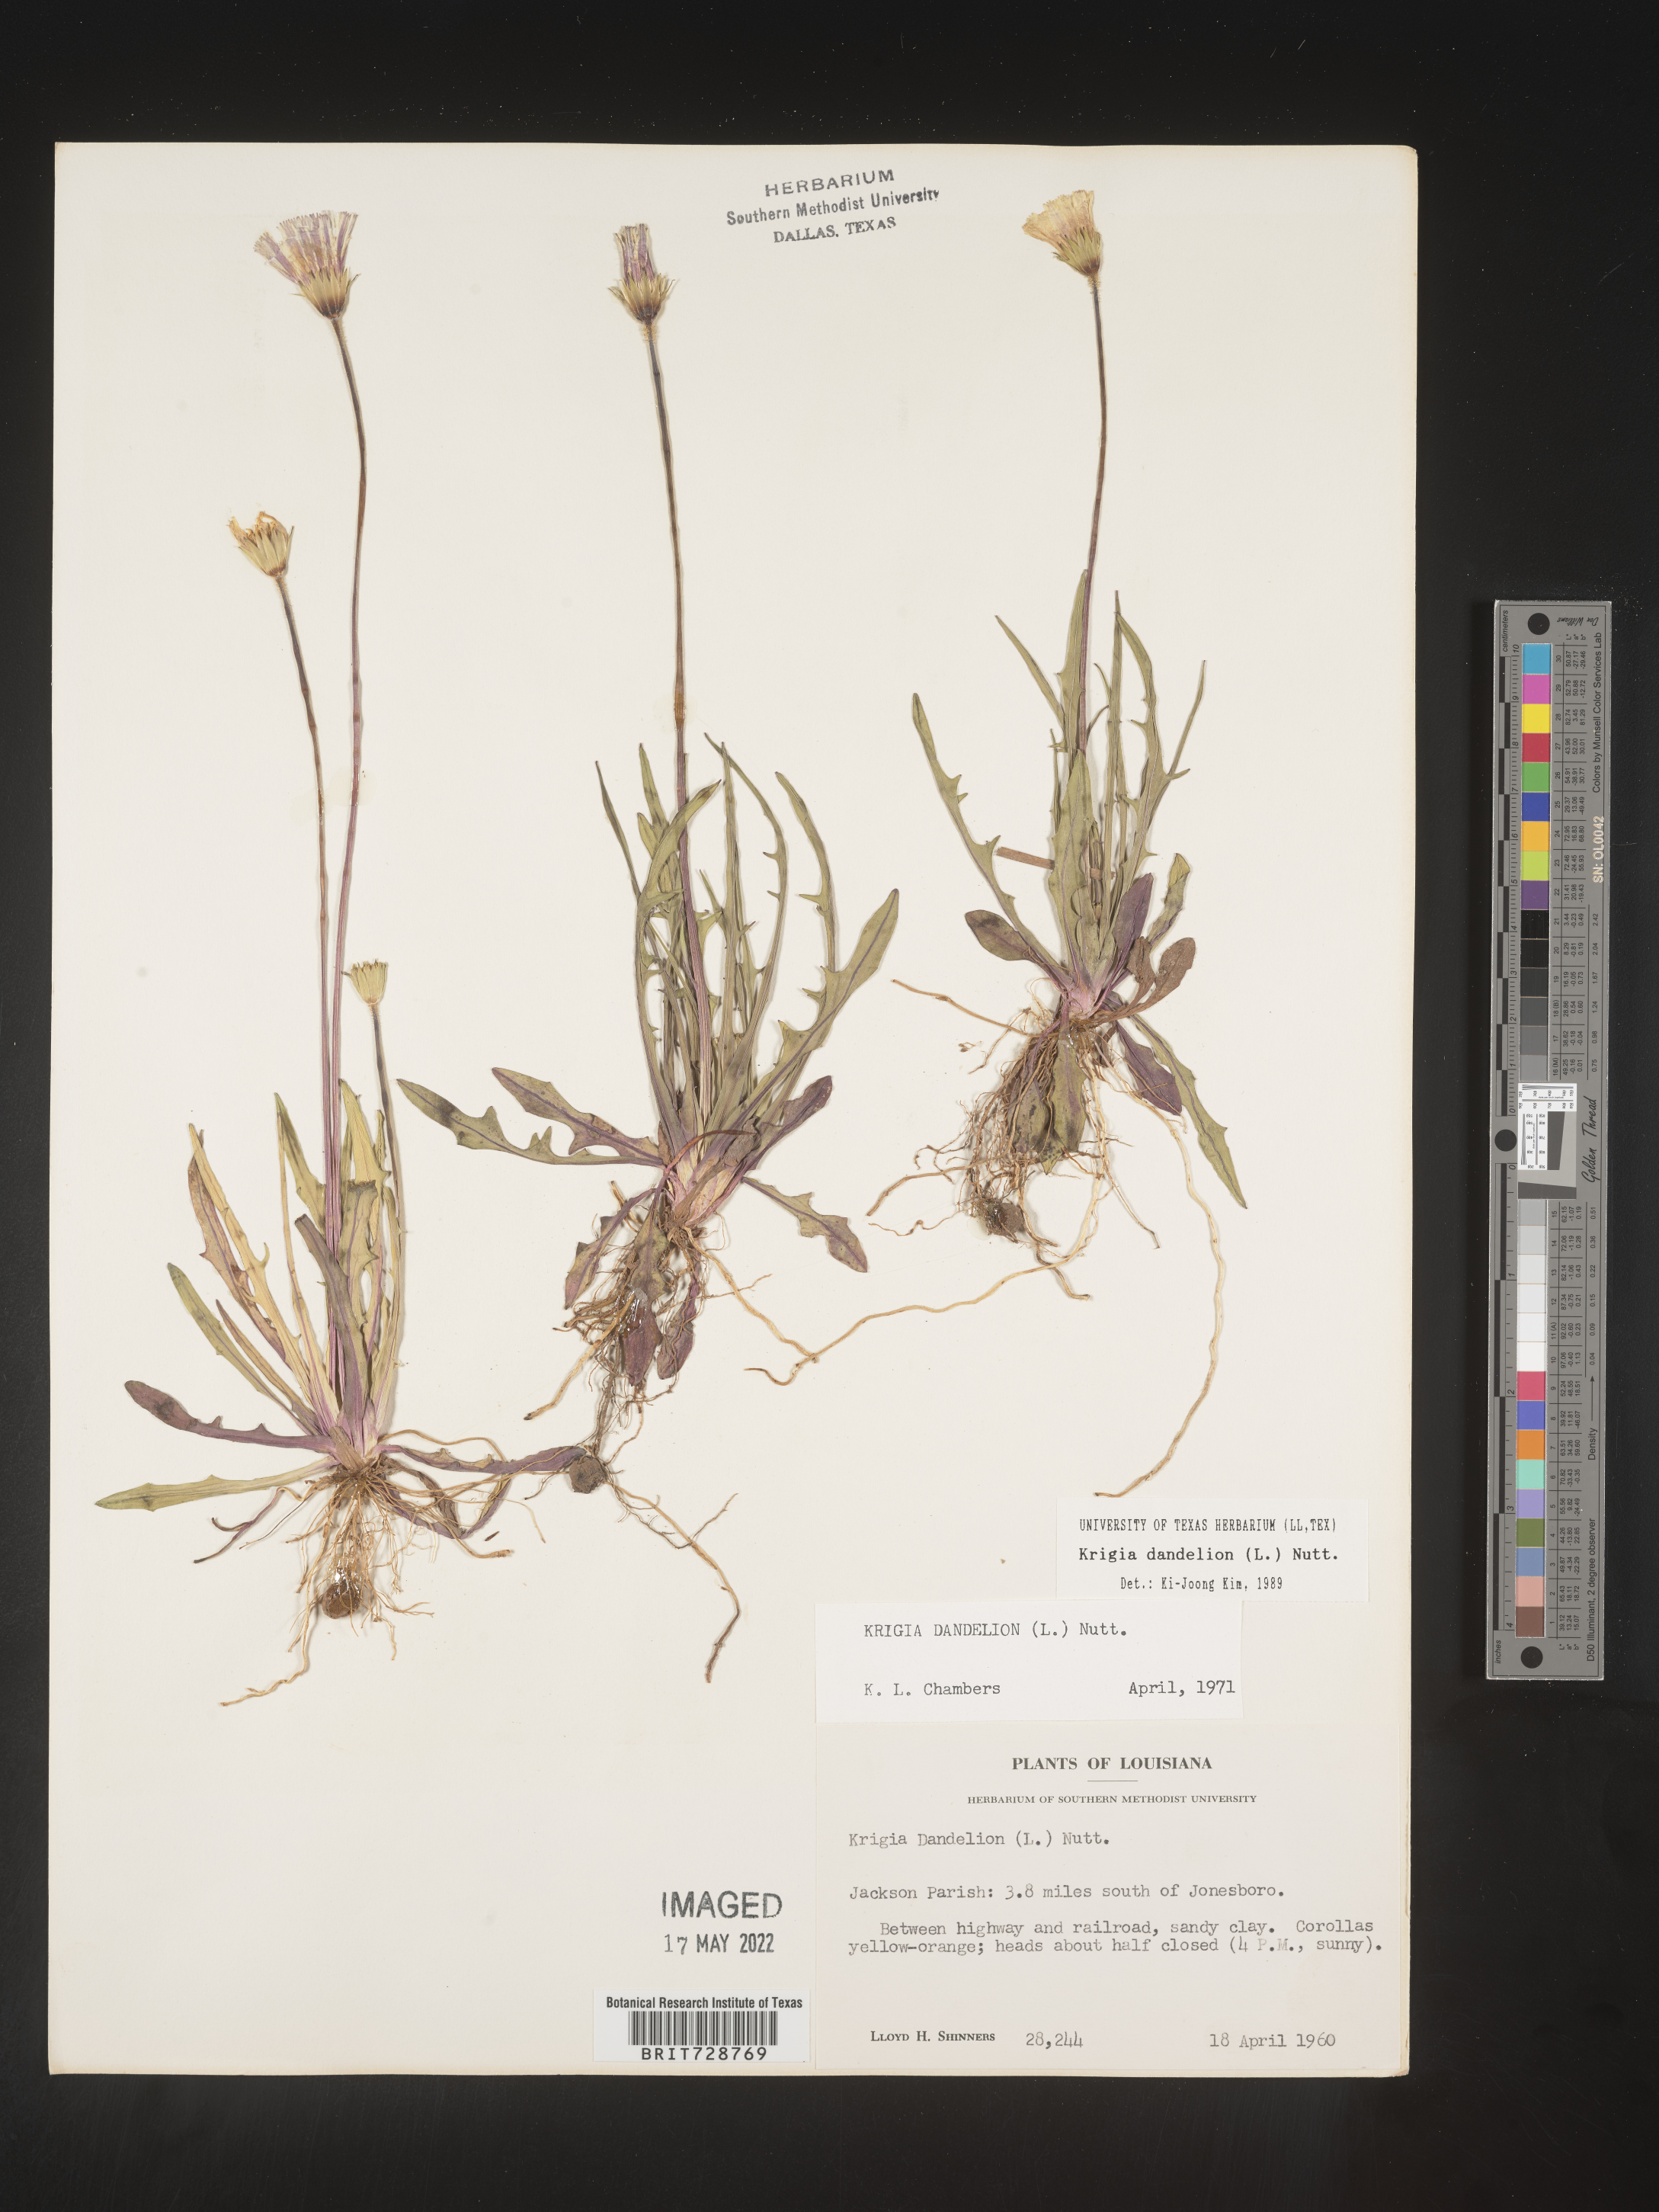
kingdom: Plantae
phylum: Tracheophyta
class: Magnoliopsida
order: Asterales
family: Asteraceae
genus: Krigia
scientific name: Krigia dandelion
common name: Colonial dwarf-dandelion
